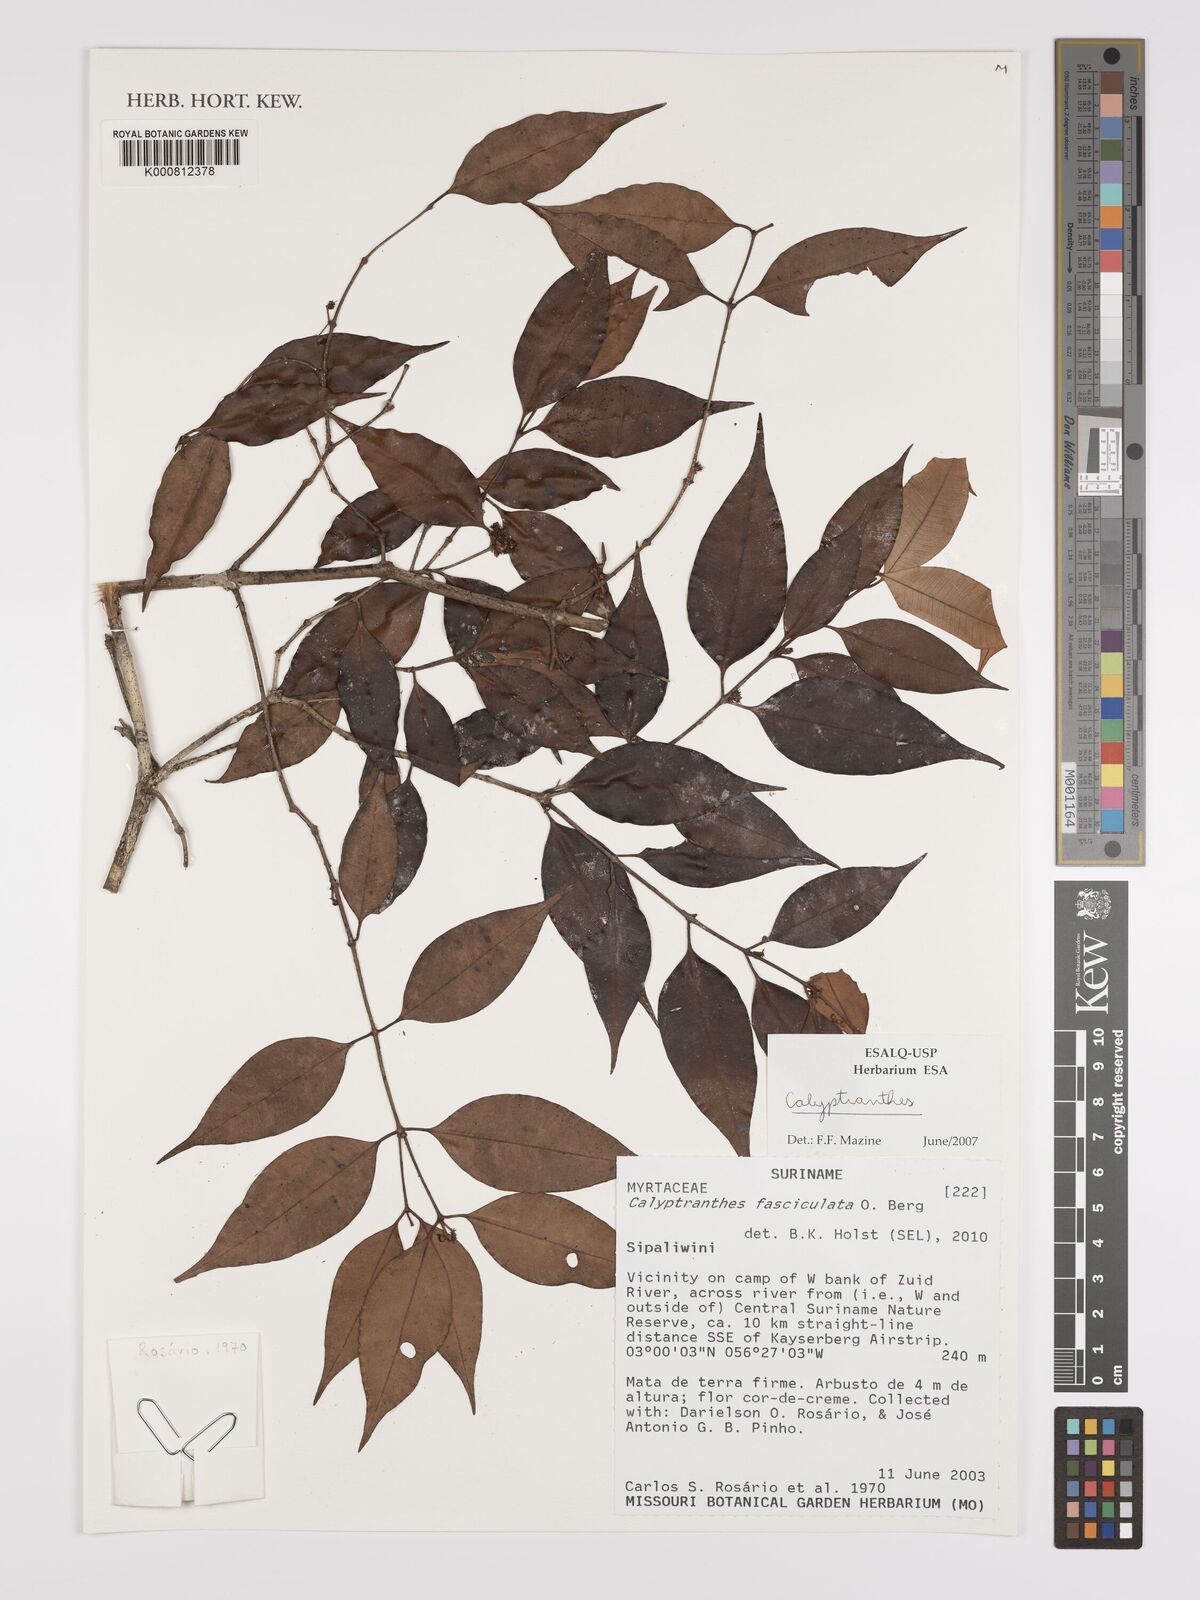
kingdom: Plantae
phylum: Tracheophyta
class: Magnoliopsida
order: Myrtales
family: Myrtaceae
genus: Myrcia
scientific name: Myrcia fasciculata
